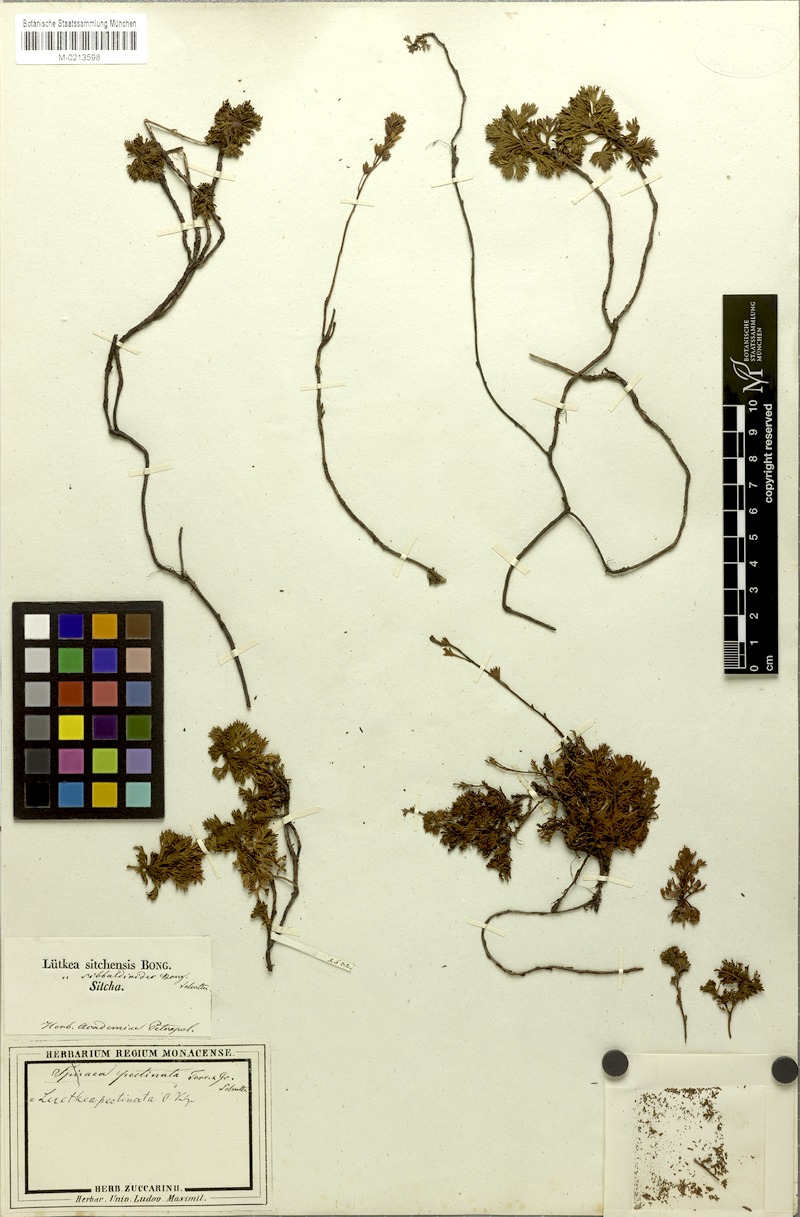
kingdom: Plantae
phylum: Tracheophyta
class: Magnoliopsida
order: Rosales
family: Rosaceae
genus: Luetkea
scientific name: Luetkea pectinata
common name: Partridgefoot
